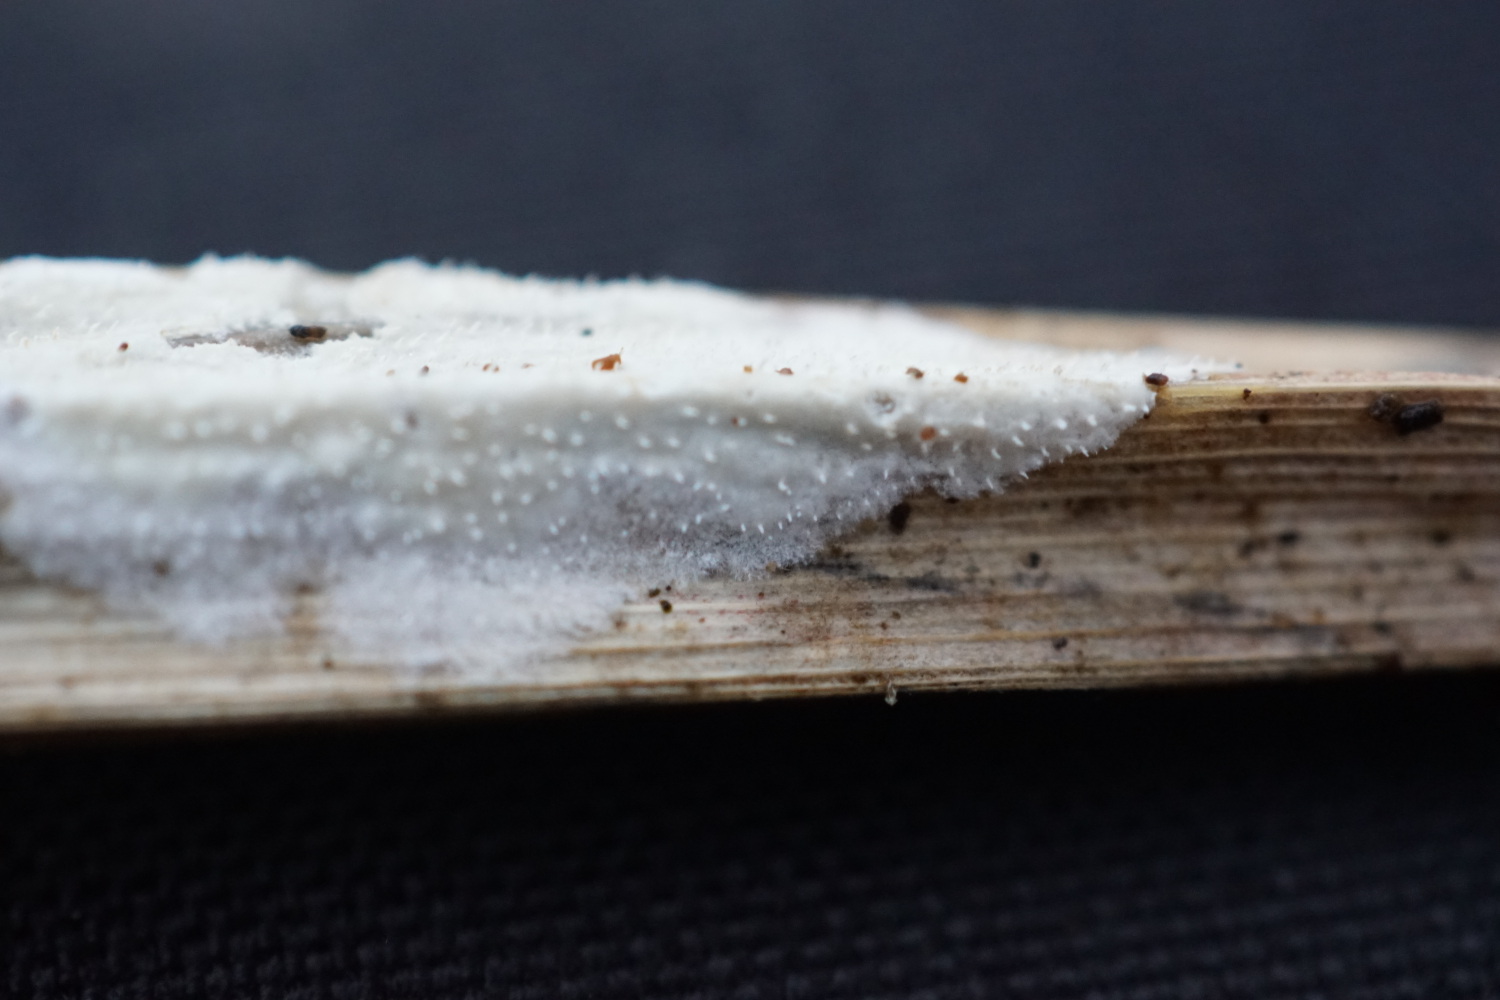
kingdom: Fungi
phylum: Basidiomycota
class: Agaricomycetes
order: Polyporales
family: Polyporaceae
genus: Epithele
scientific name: Epithele typhae
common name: starpig
